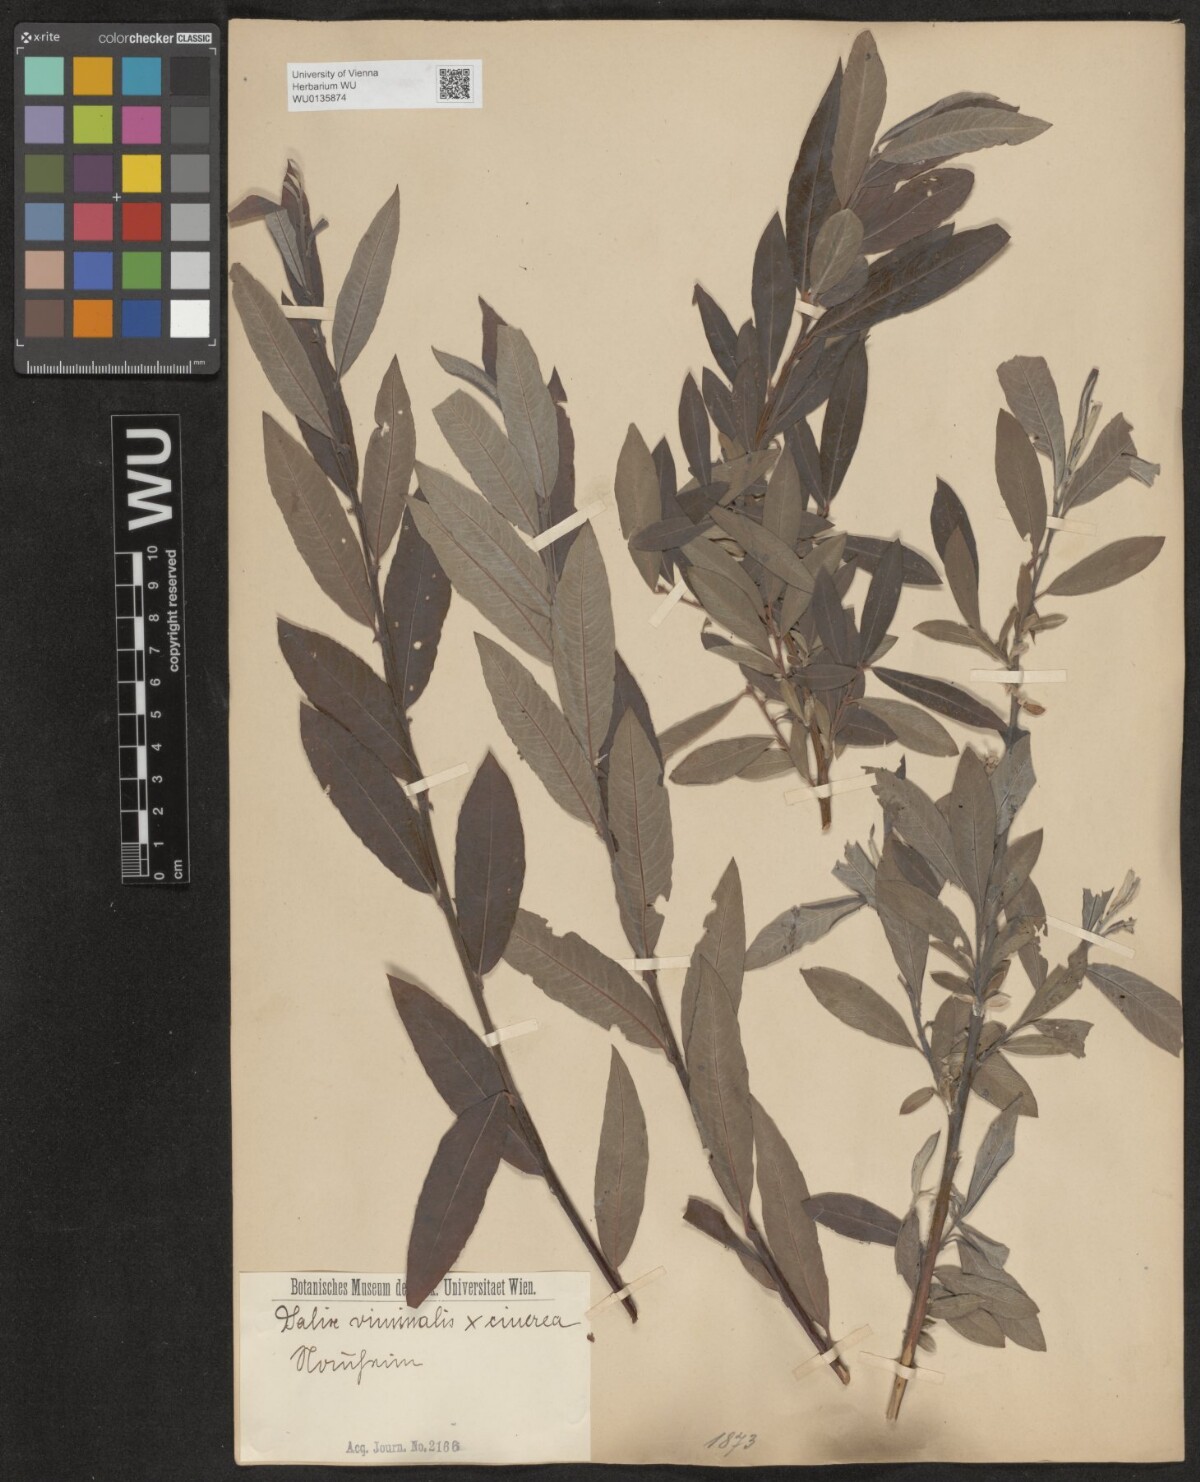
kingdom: Plantae
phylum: Tracheophyta
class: Magnoliopsida
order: Malpighiales
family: Salicaceae
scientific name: Salicaceae
